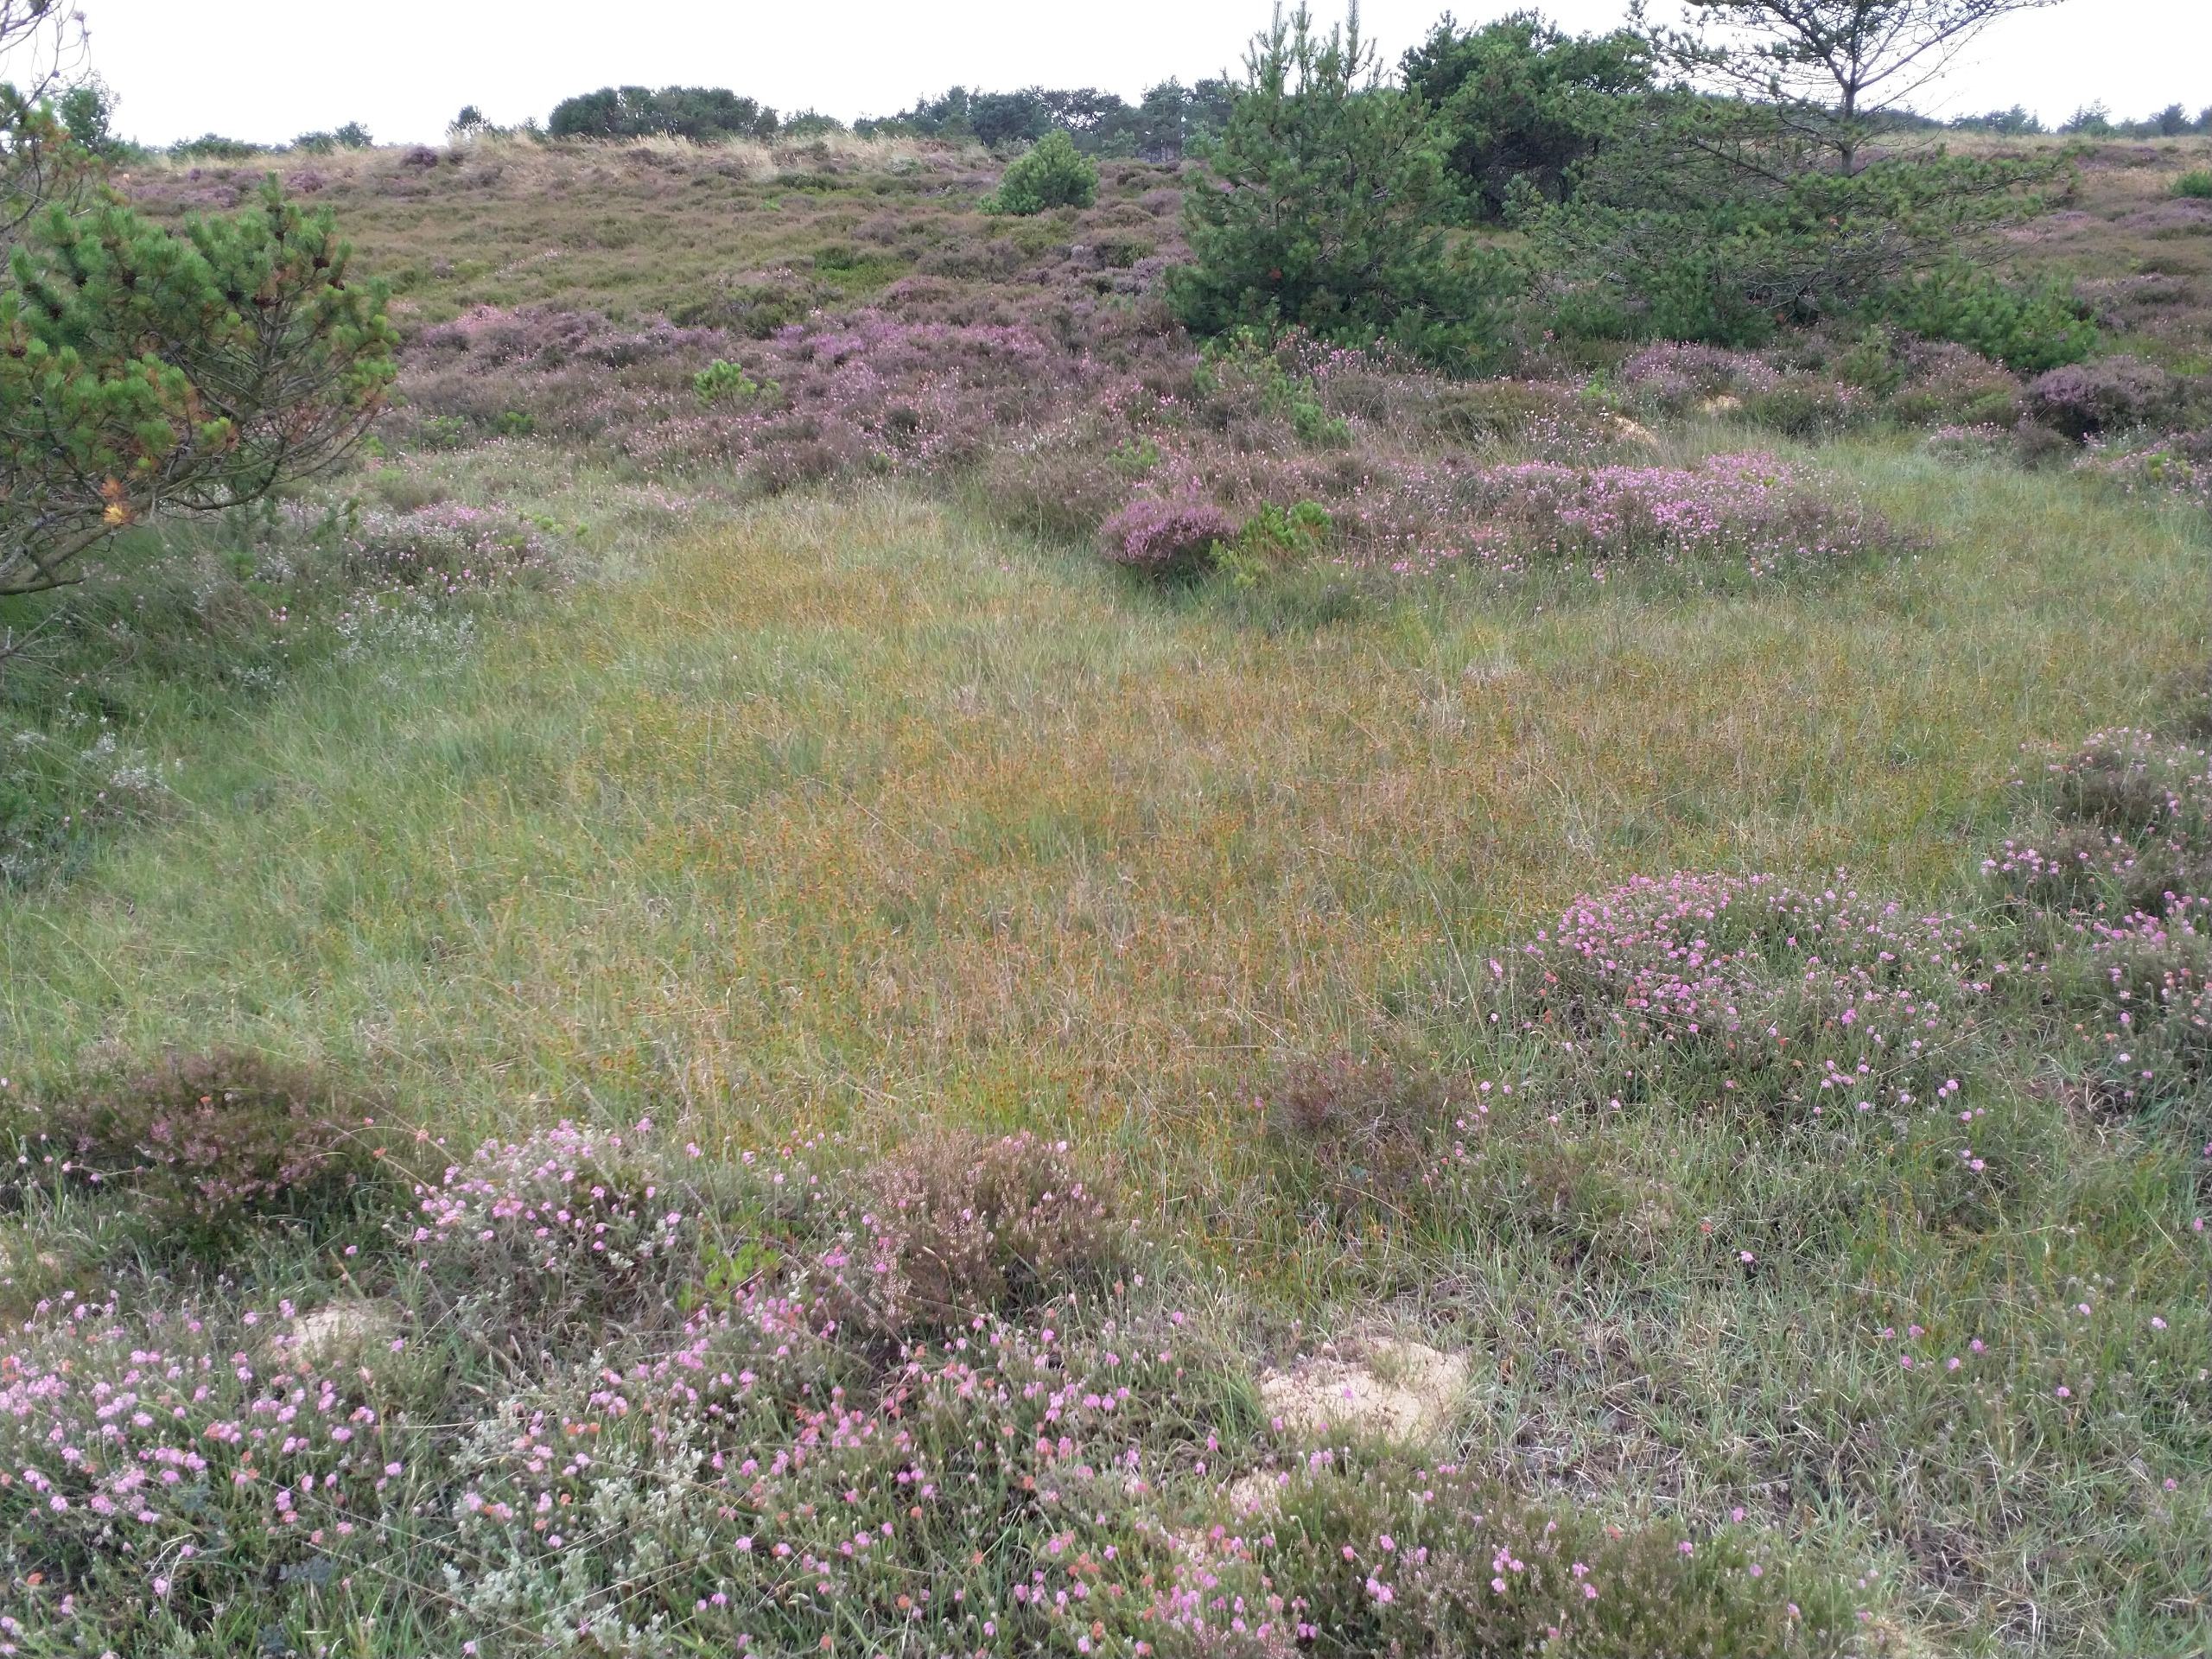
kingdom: Plantae
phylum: Tracheophyta
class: Liliopsida
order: Poales
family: Cyperaceae
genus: Rhynchospora
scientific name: Rhynchospora fusca
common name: Brun næbfrø
